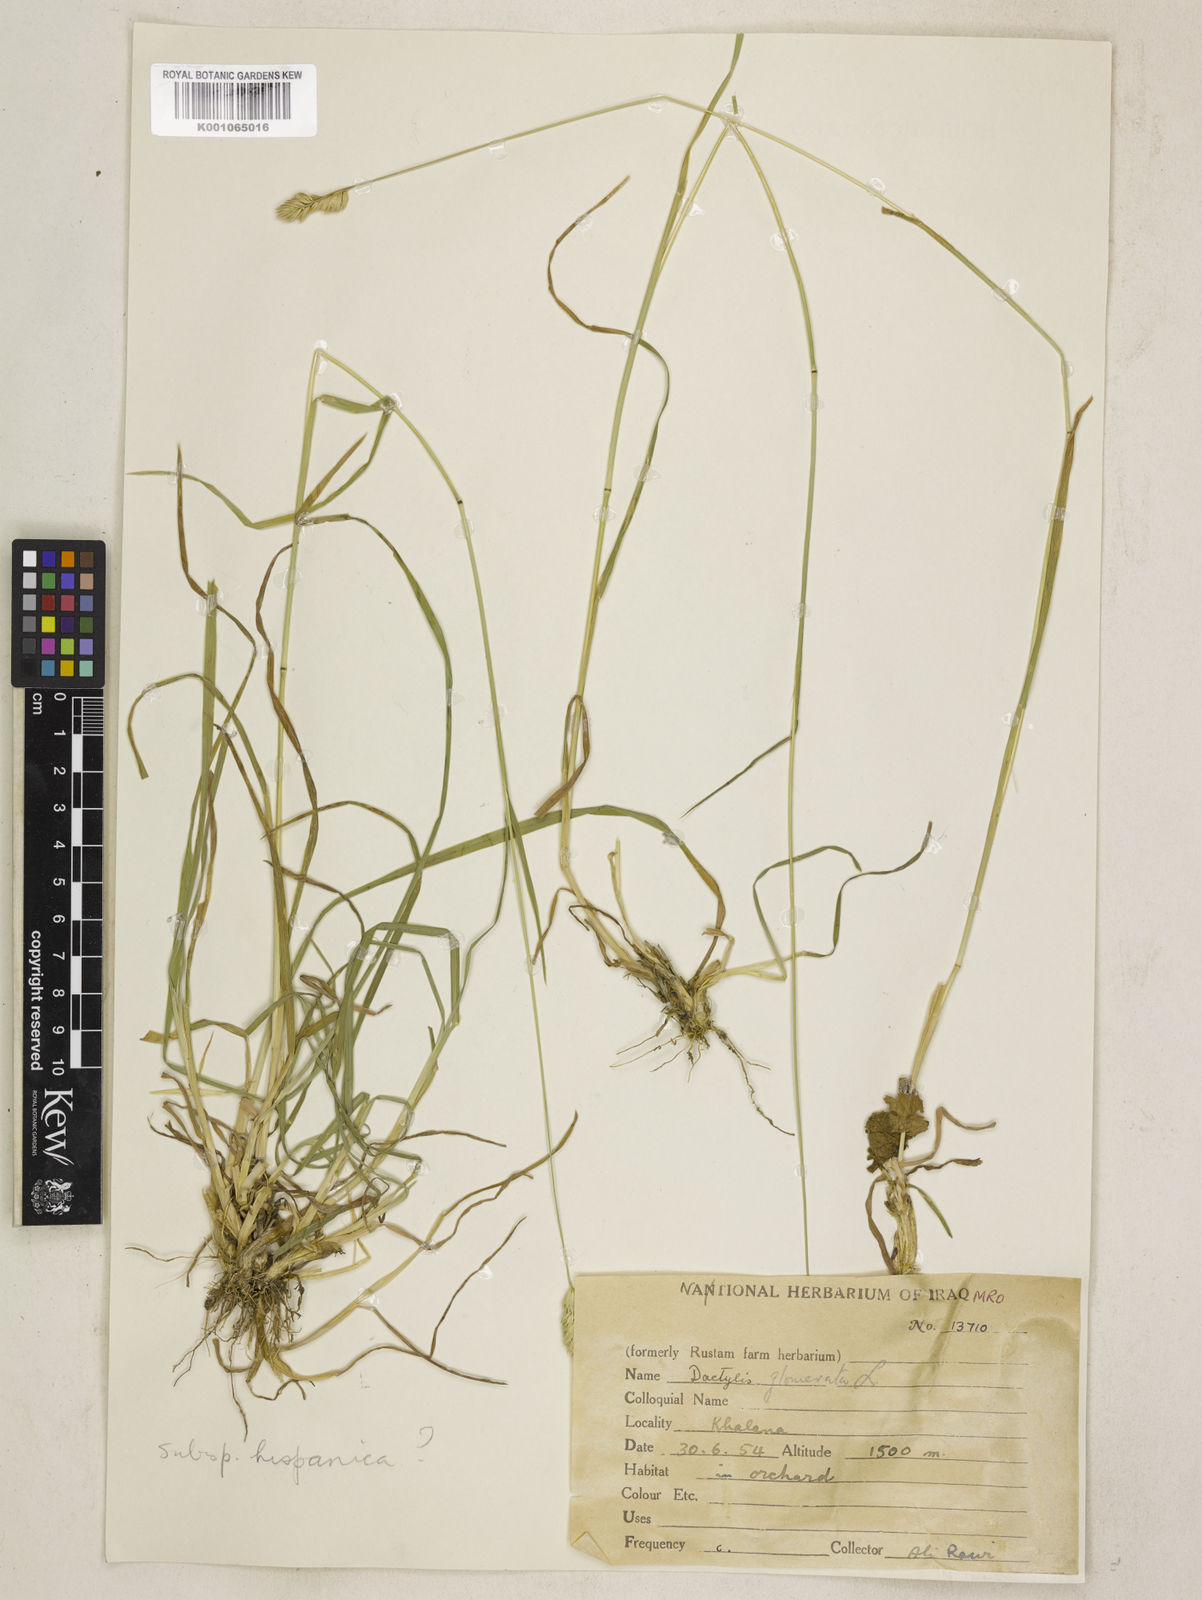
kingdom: Plantae
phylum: Tracheophyta
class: Liliopsida
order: Poales
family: Poaceae
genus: Dactylis
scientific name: Dactylis glomerata
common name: Orchardgrass
